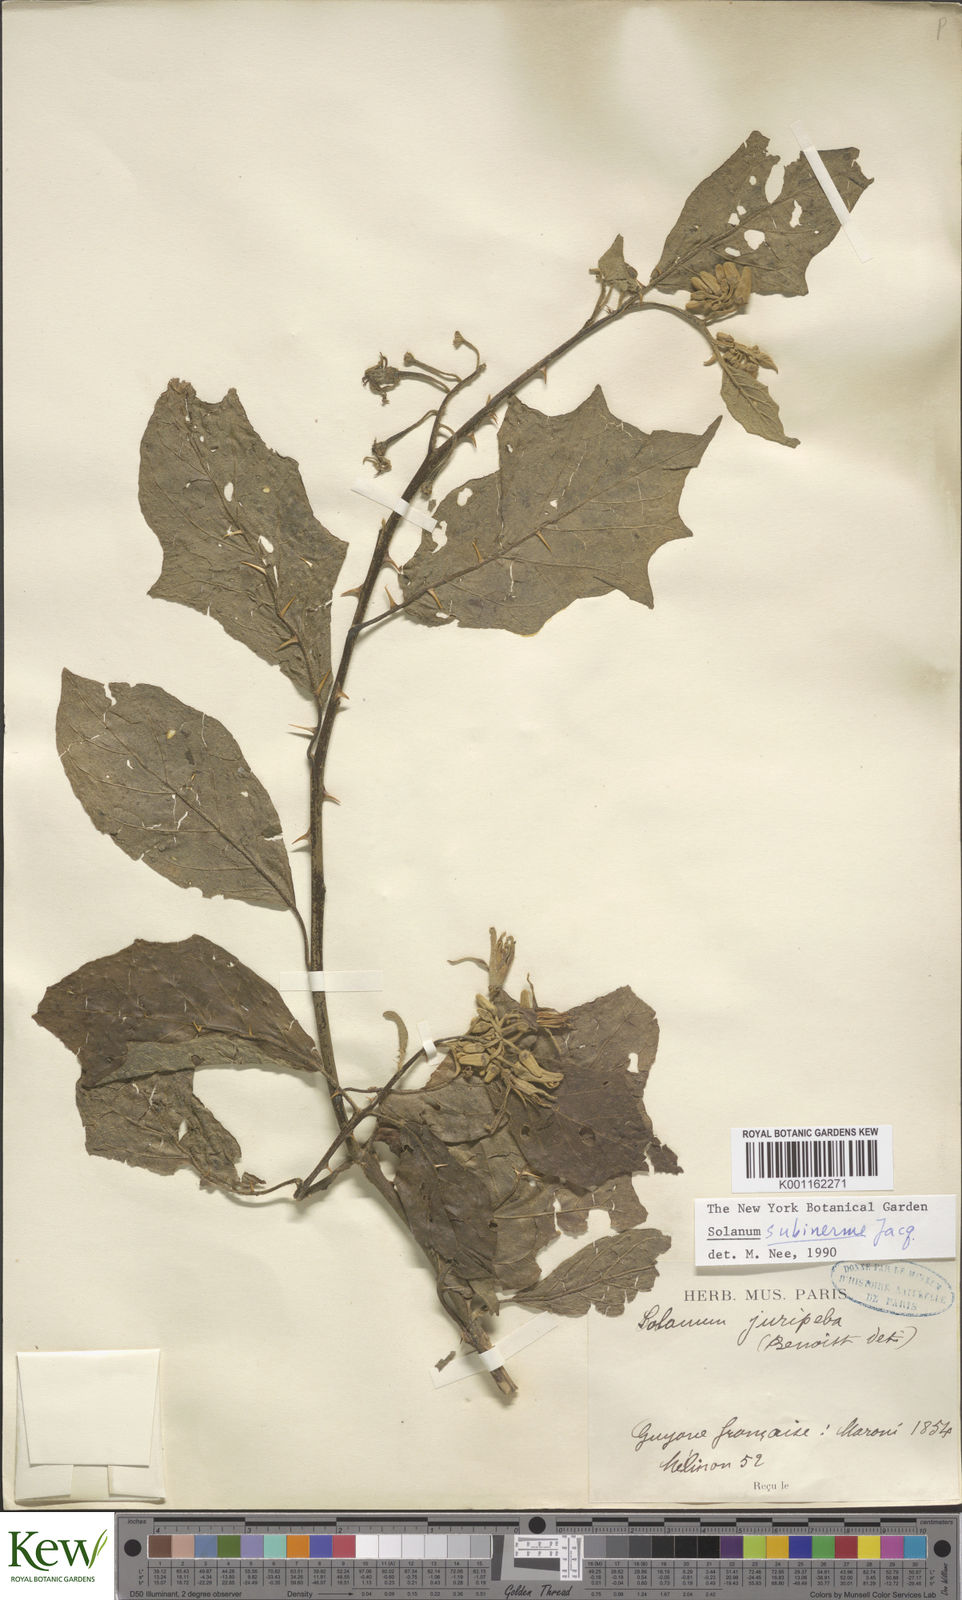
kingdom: Plantae
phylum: Tracheophyta
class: Magnoliopsida
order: Solanales
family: Solanaceae
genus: Solanum
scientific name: Solanum subinerme
